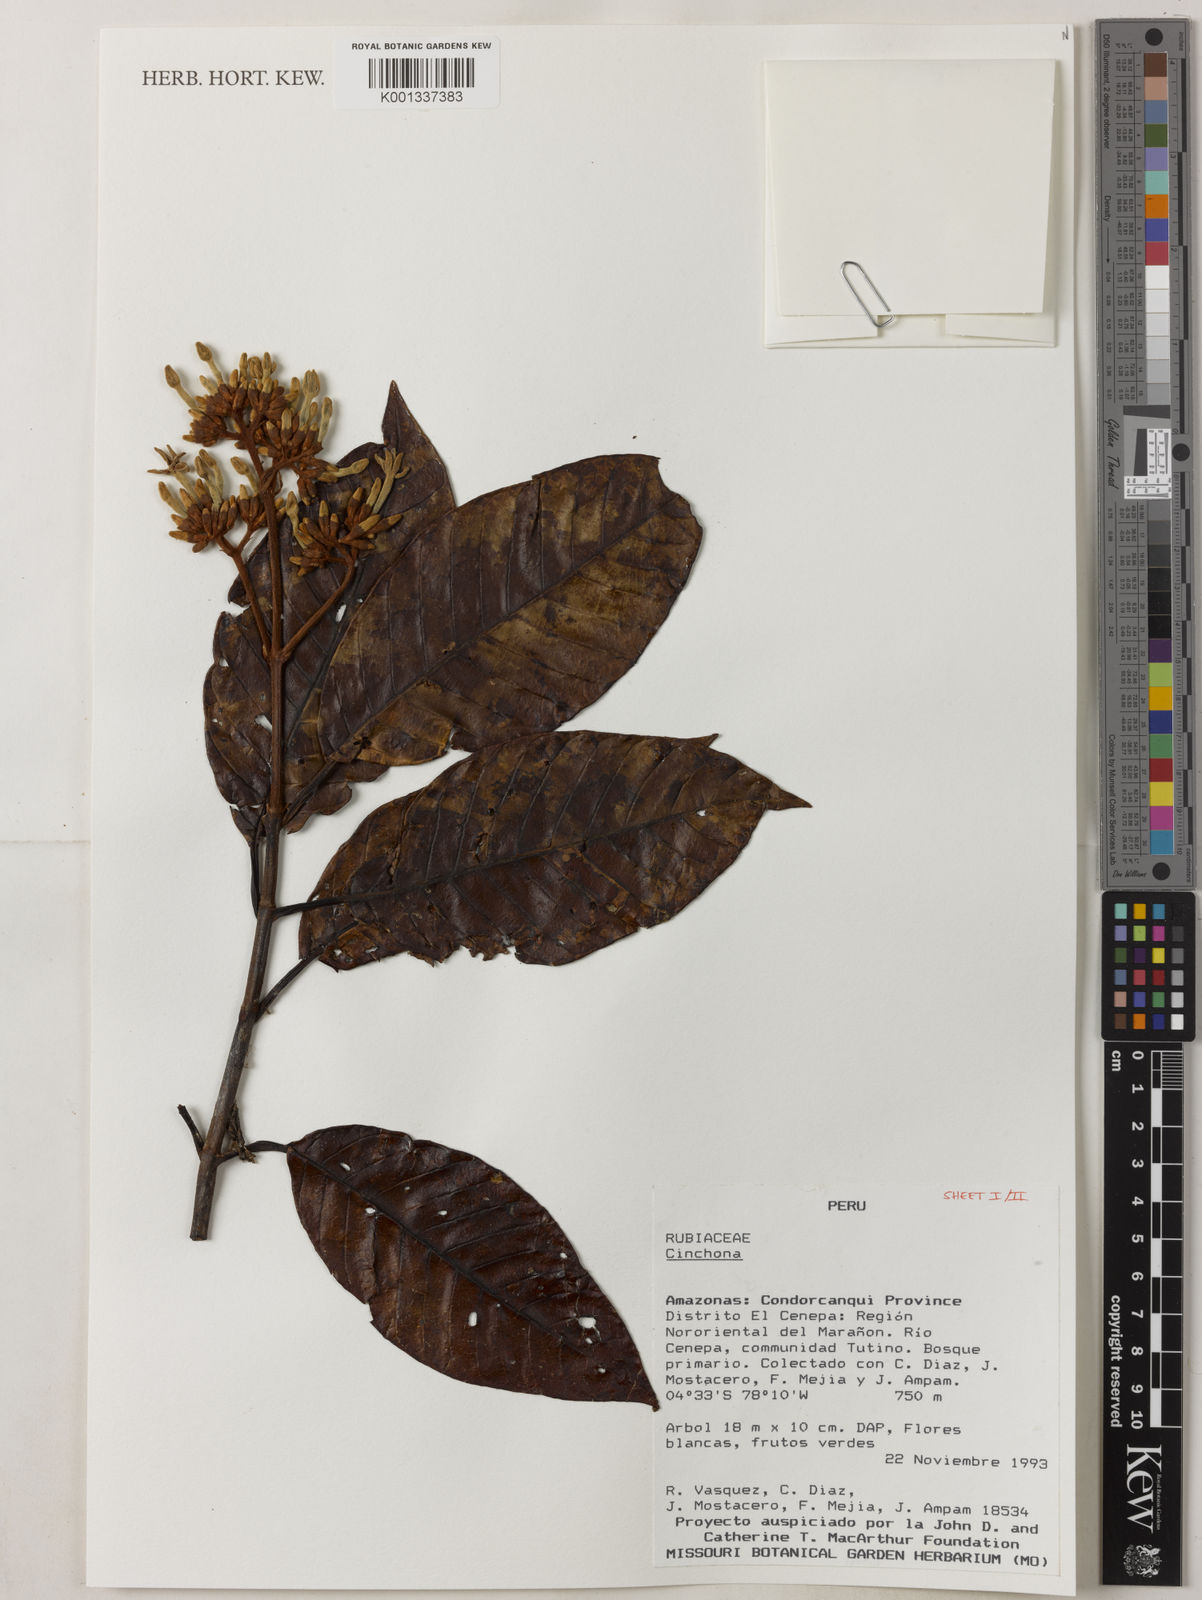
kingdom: Plantae
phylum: Tracheophyta
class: Magnoliopsida
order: Gentianales
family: Rubiaceae
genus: Cinchona
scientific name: Cinchona
